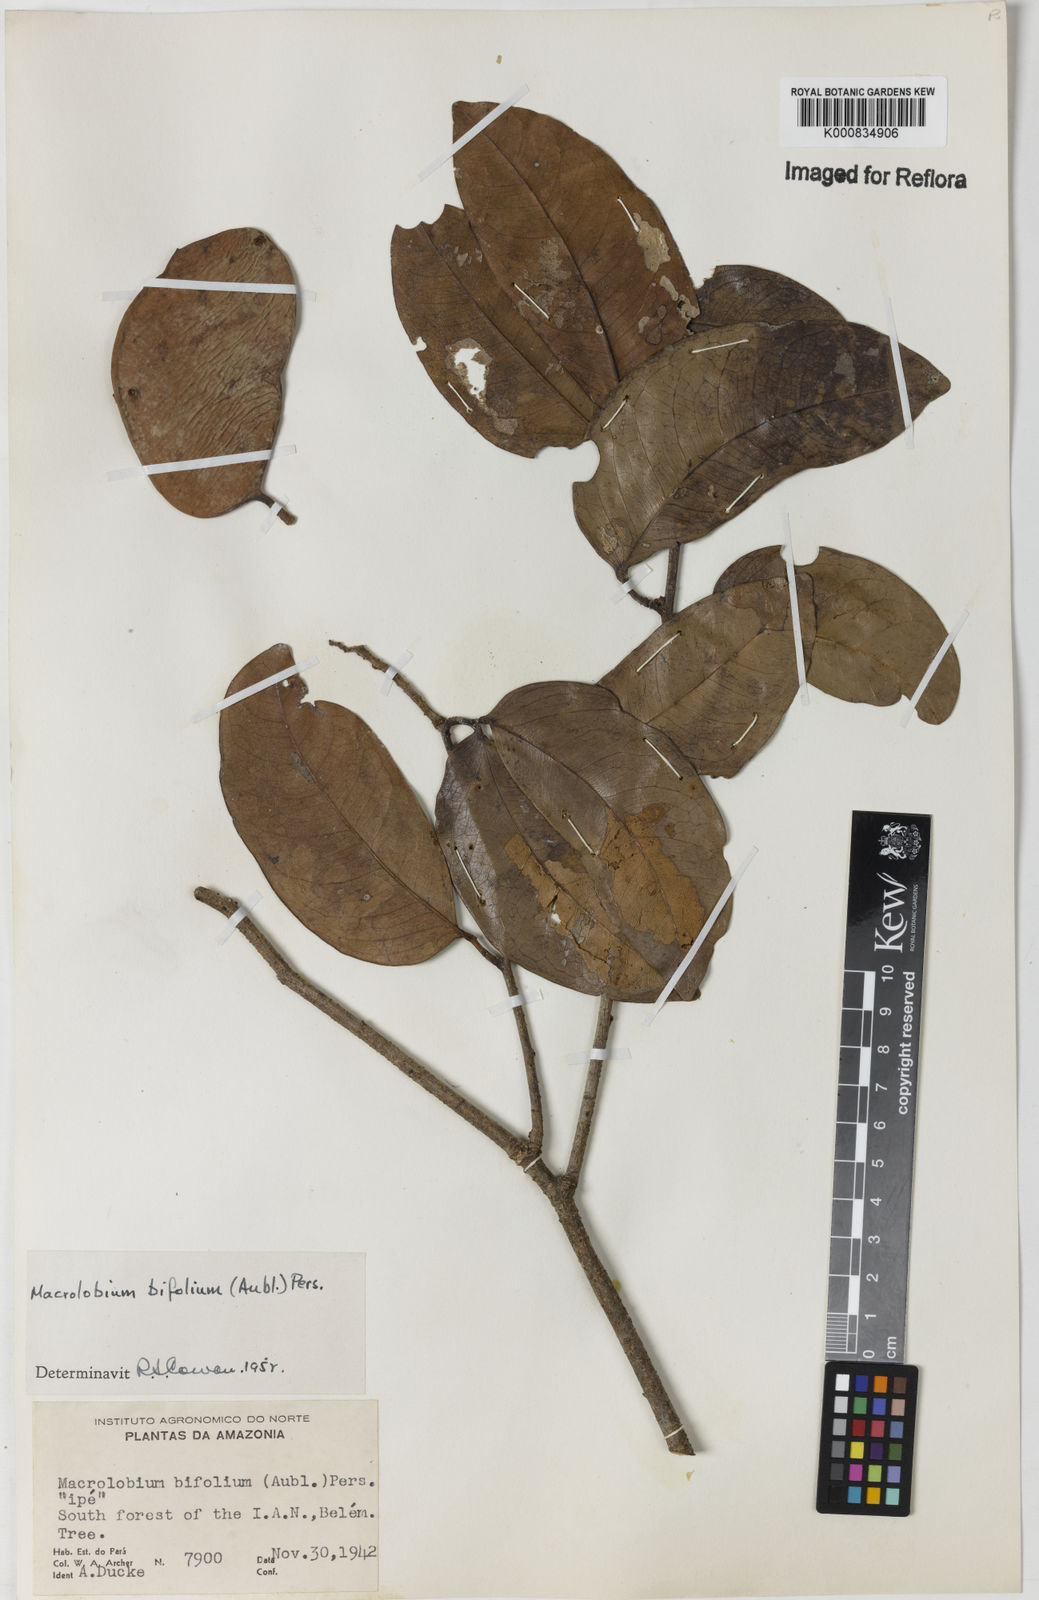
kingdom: Plantae
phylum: Tracheophyta
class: Magnoliopsida
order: Fabales
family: Fabaceae
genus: Macrolobium
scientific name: Macrolobium bifolium
